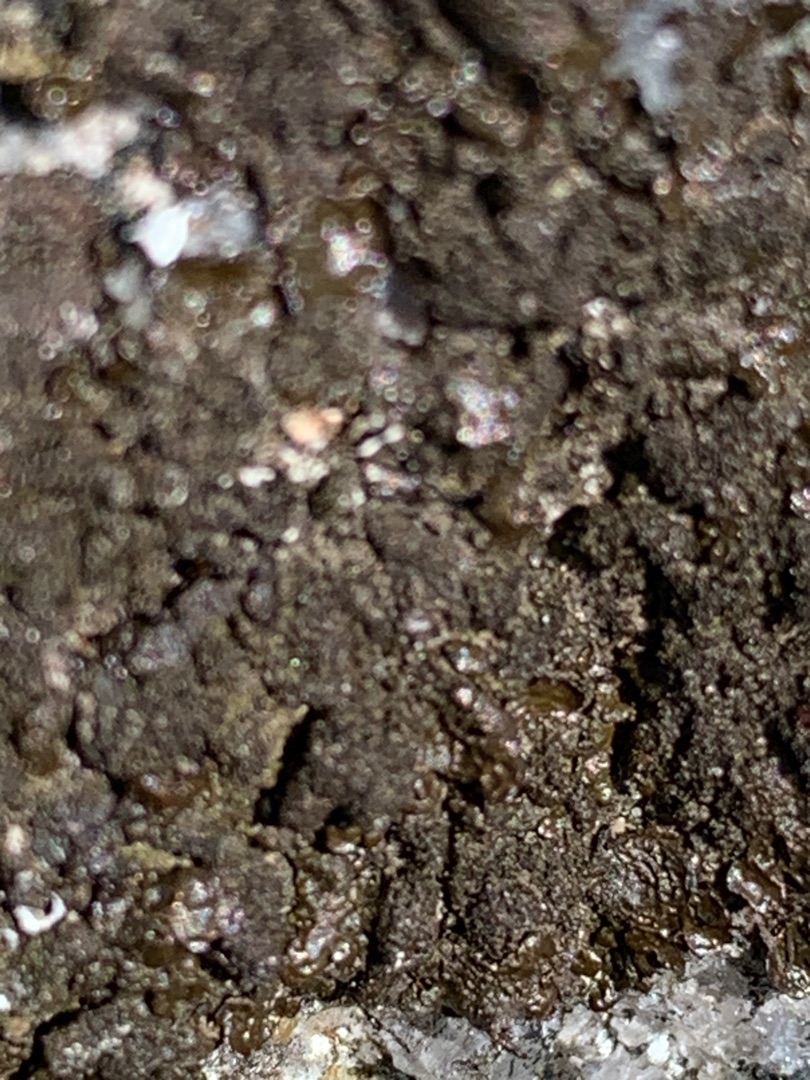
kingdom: Fungi
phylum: Ascomycota
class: Lecanoromycetes
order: Lecanorales
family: Parmeliaceae
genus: Melanelixia
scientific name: Melanelixia fuliginosa
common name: Sod-skållav
